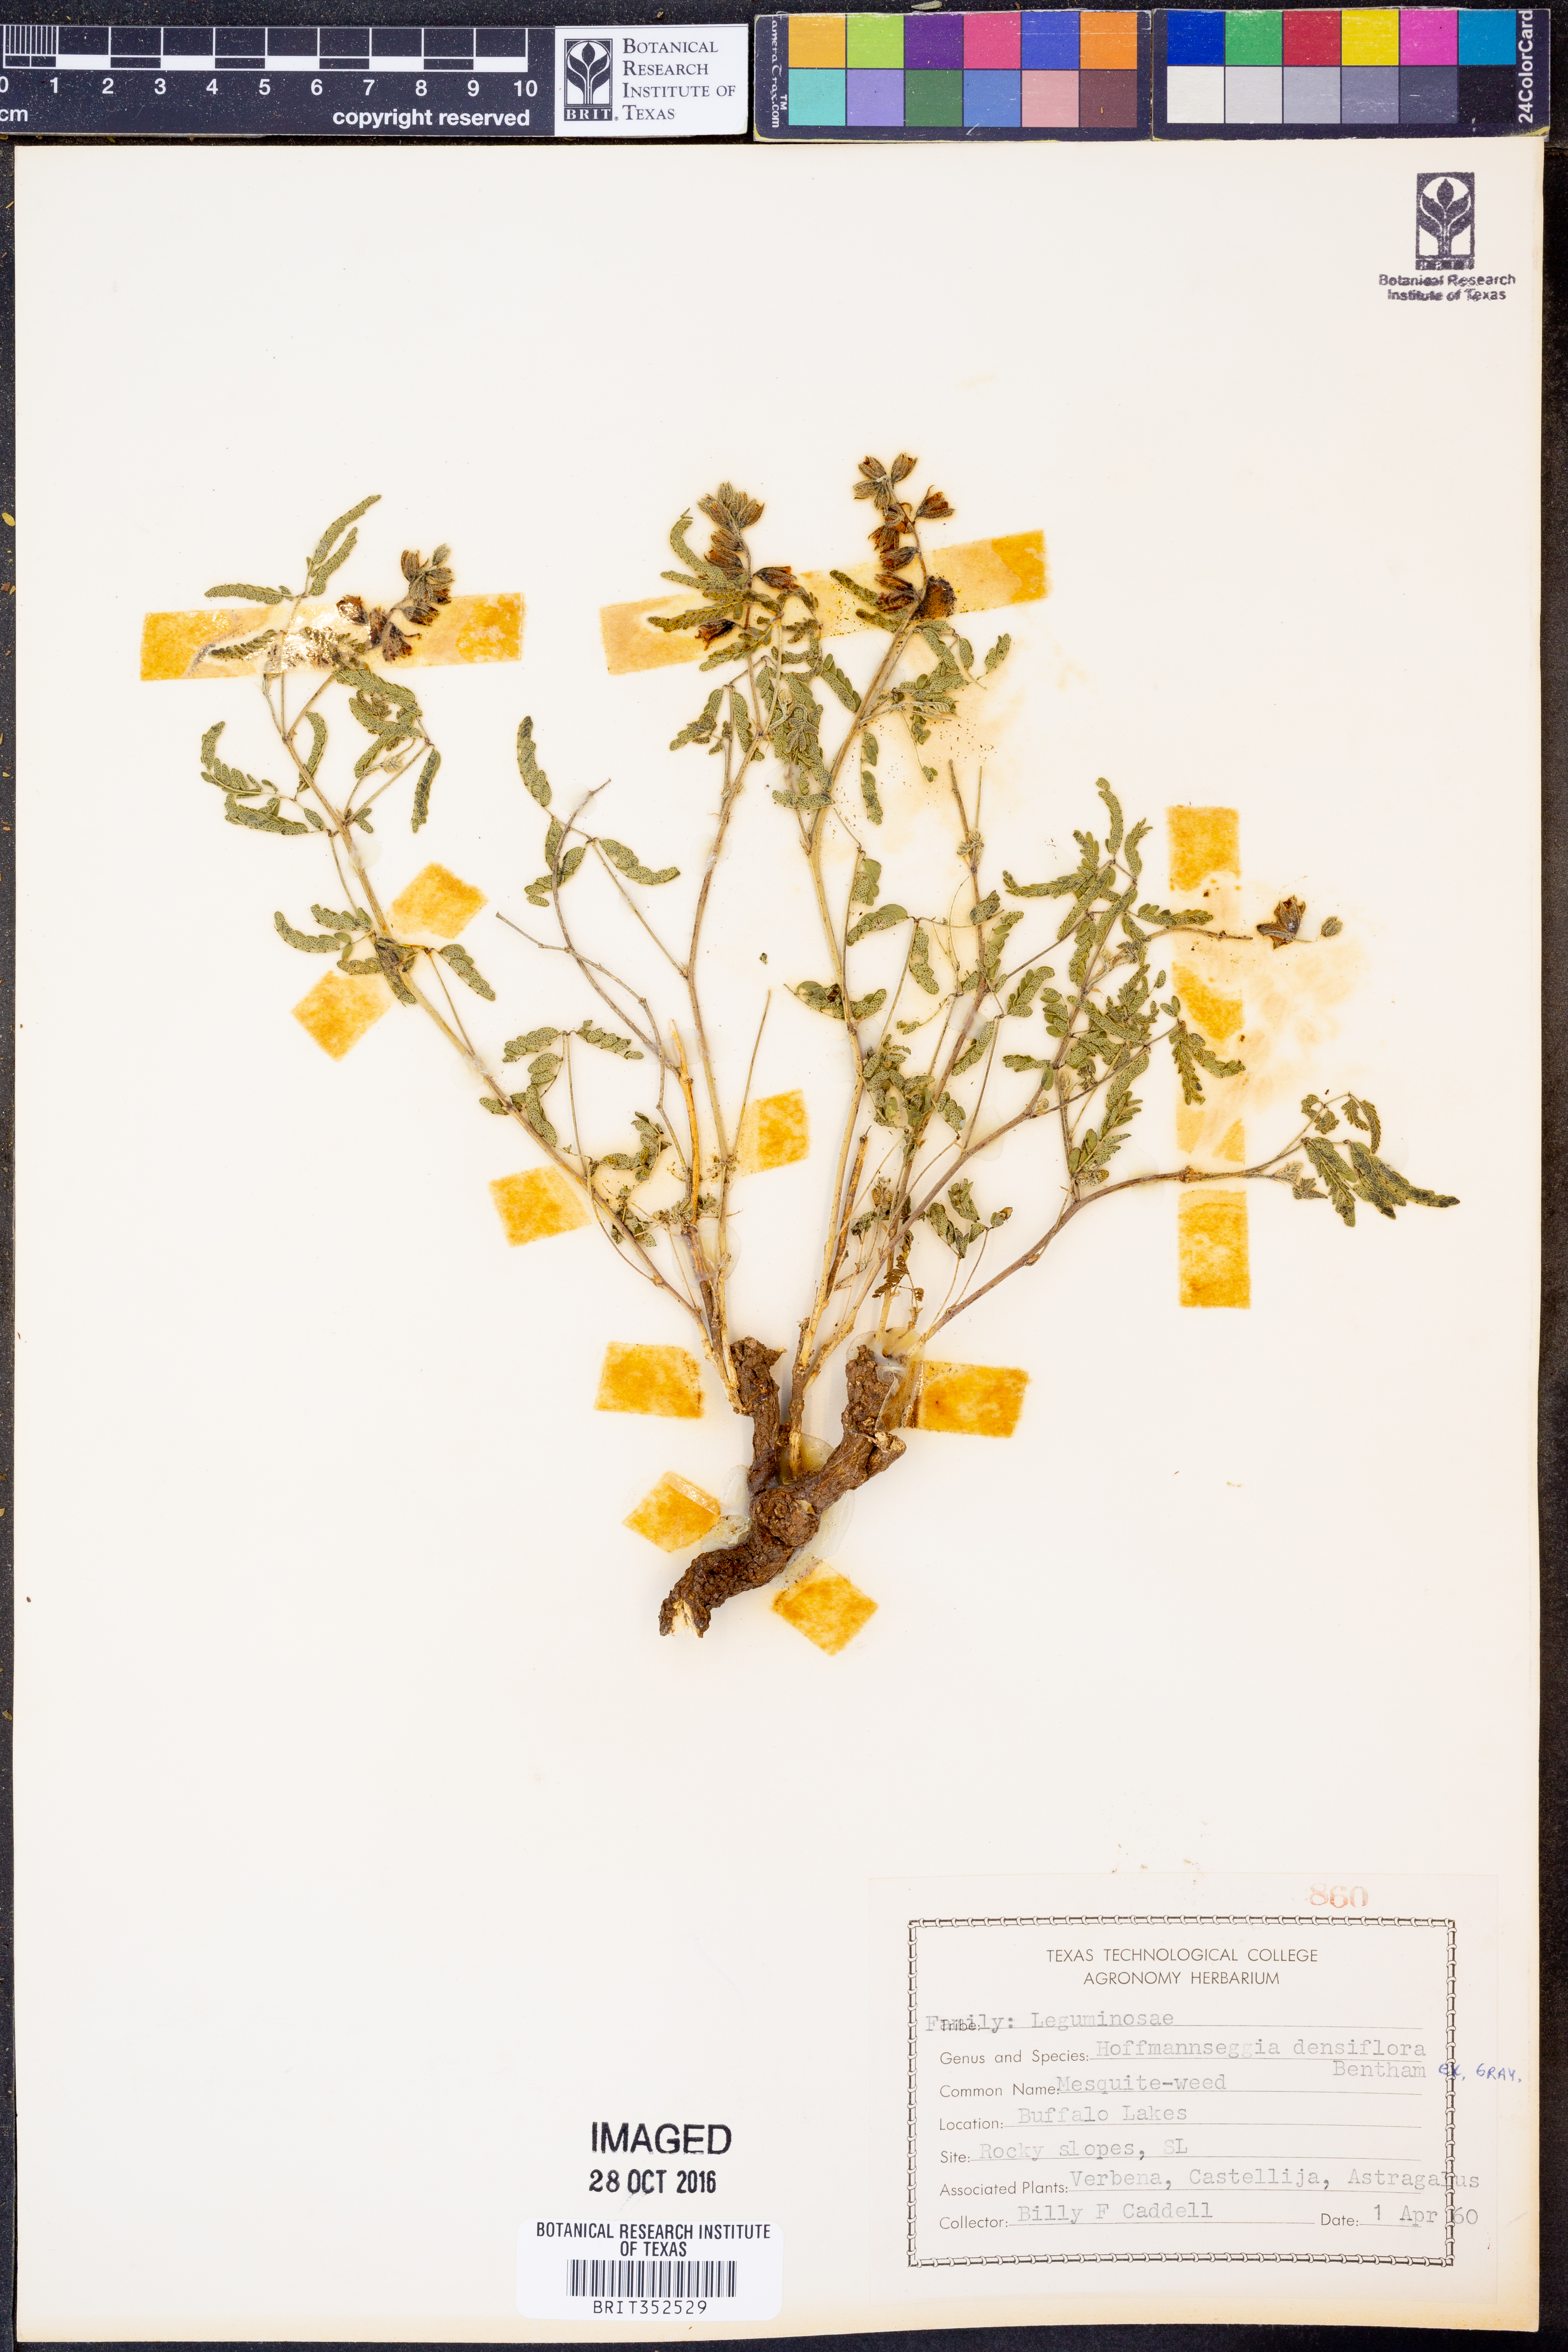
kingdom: Plantae
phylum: Tracheophyta
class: Magnoliopsida
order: Fabales
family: Fabaceae
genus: Hoffmannseggia
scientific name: Hoffmannseggia glauca
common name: Pignut
